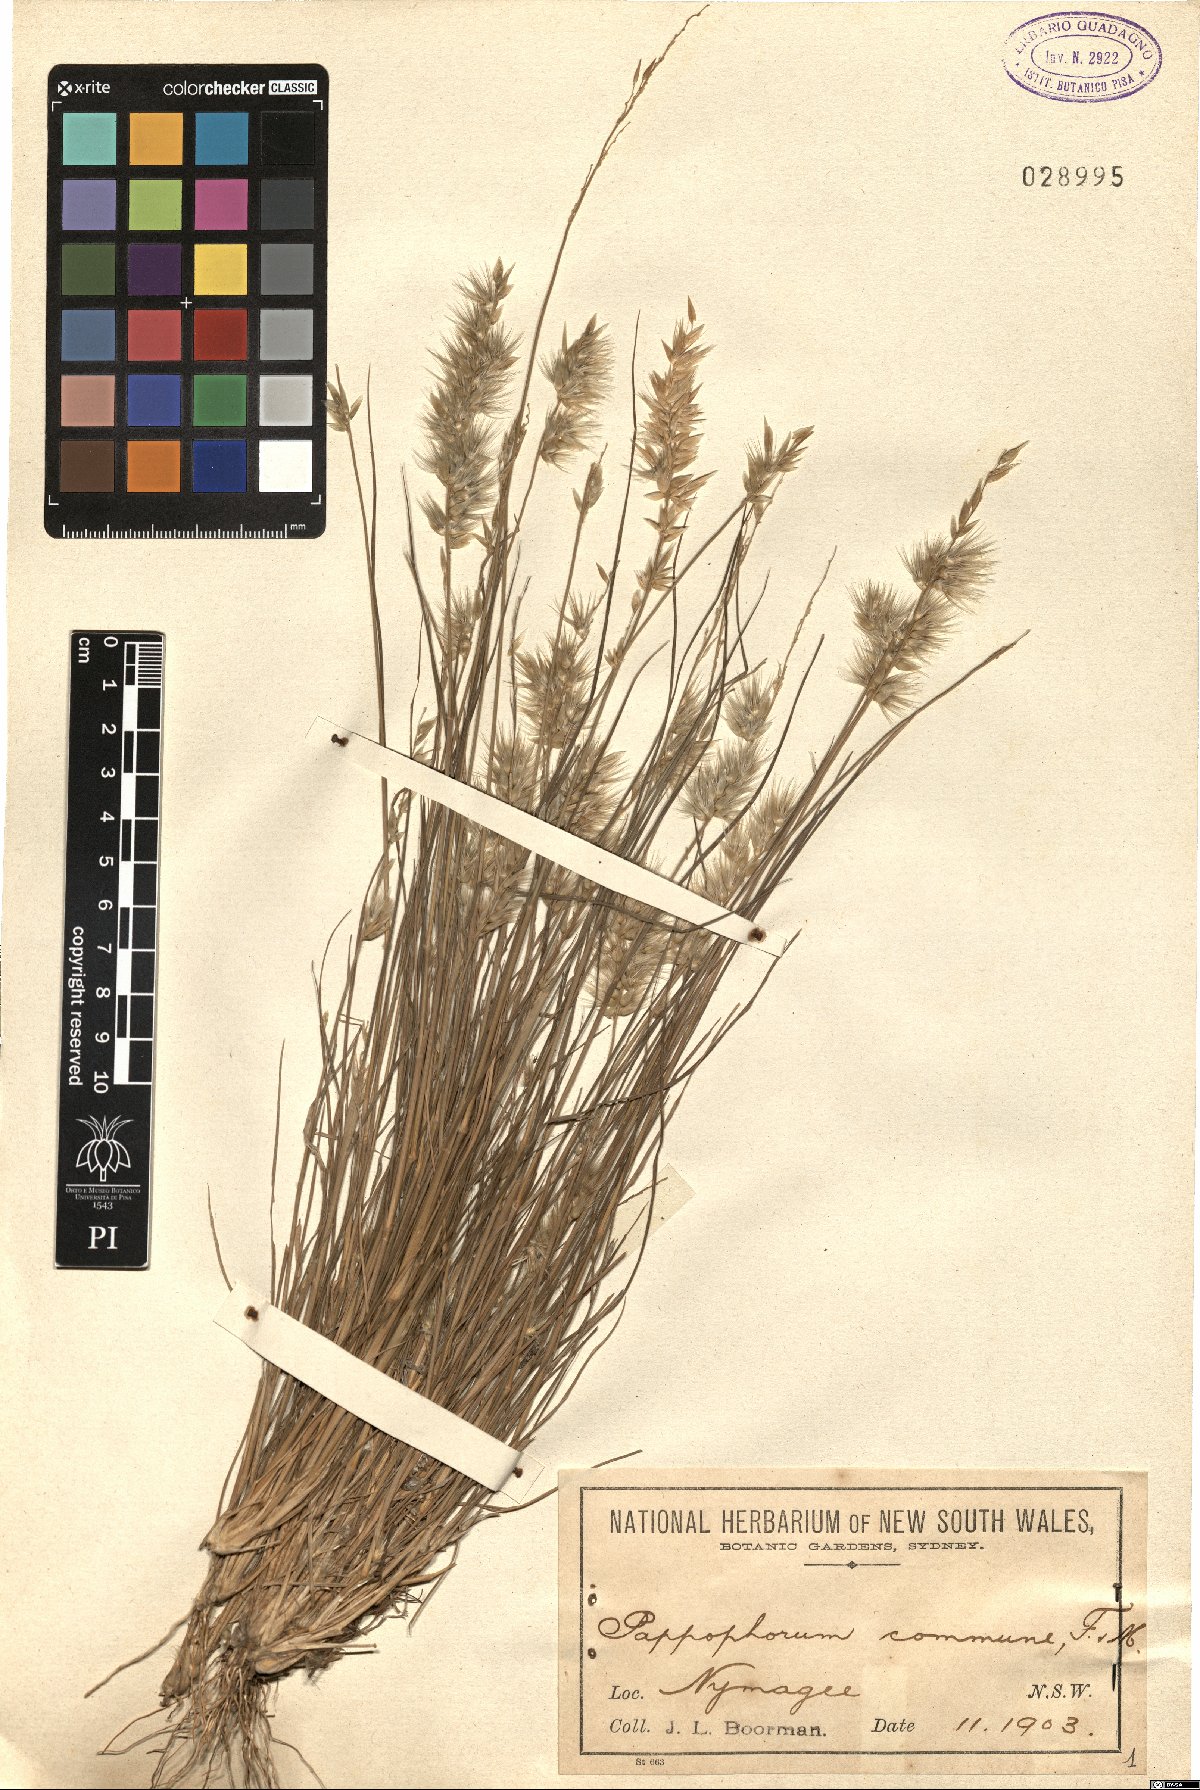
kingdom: Plantae
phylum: Tracheophyta
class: Liliopsida
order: Poales
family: Poaceae
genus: Enneapogon
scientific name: Enneapogon nigricans
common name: Pappus grass
